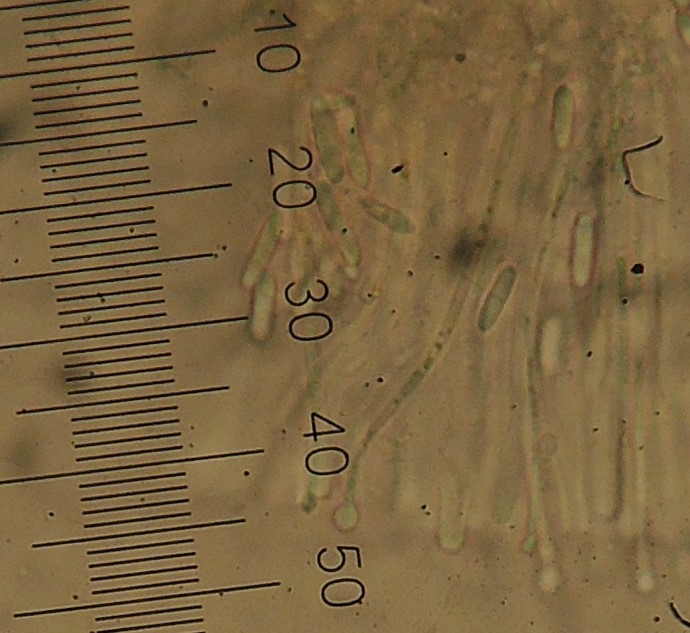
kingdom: Fungi
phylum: Ascomycota
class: Lecanoromycetes
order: Ostropales
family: Stictidaceae
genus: Cryptodiscus
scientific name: Cryptodiscus foveolaris
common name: ellipse-barkhul
